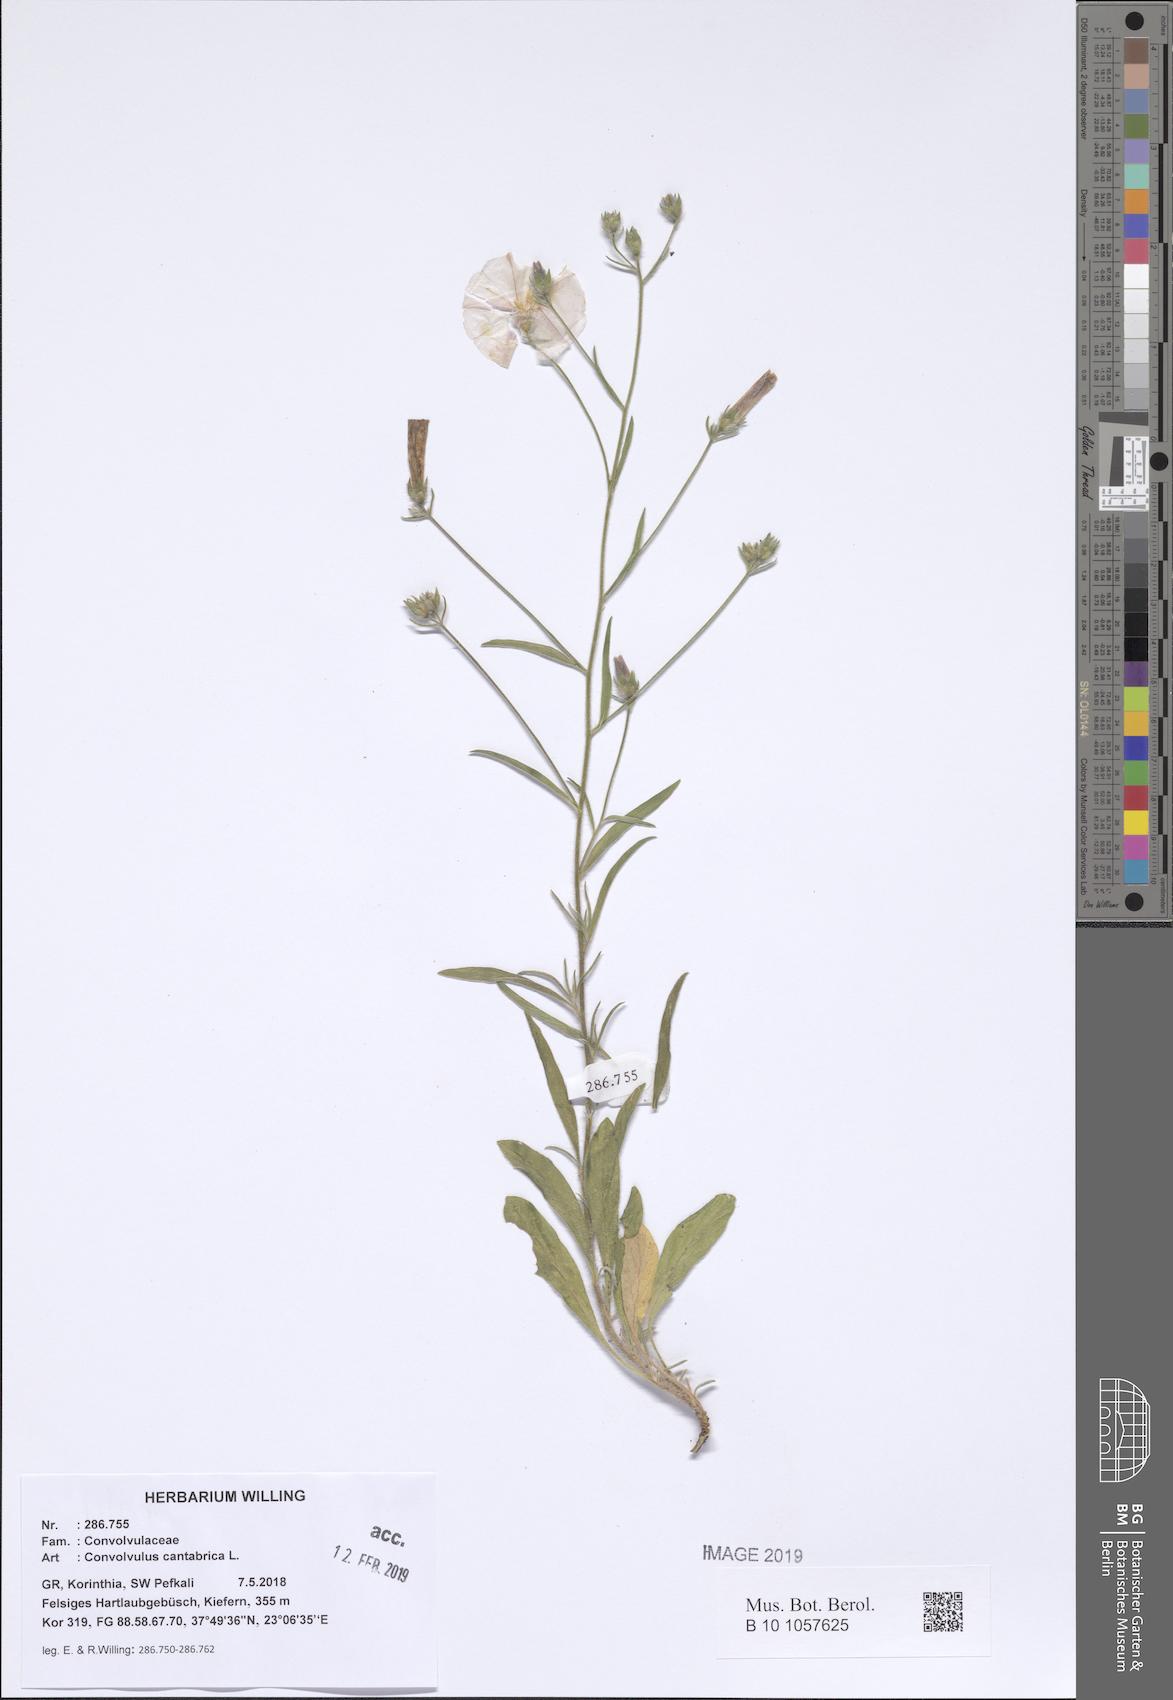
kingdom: Plantae
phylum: Tracheophyta
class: Magnoliopsida
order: Solanales
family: Convolvulaceae
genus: Convolvulus
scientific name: Convolvulus cantabrica
